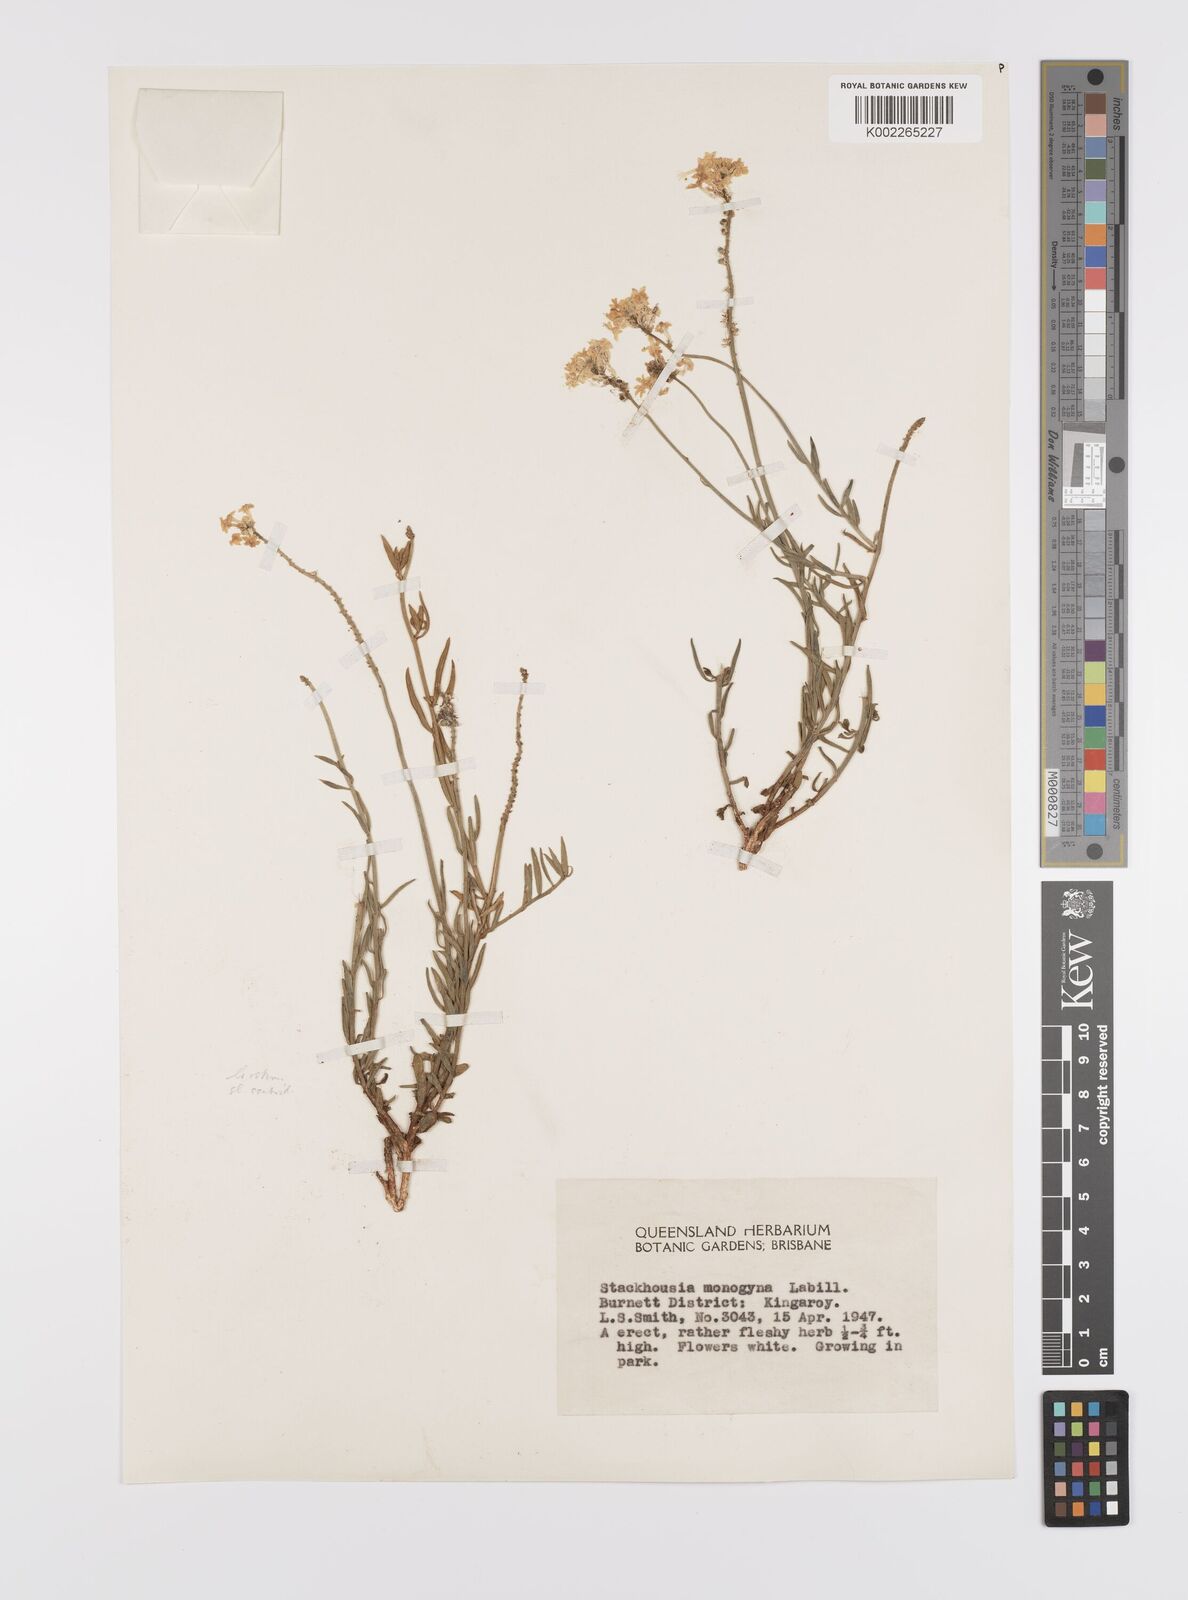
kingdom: Plantae
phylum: Tracheophyta
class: Magnoliopsida
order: Celastrales
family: Celastraceae
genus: Stackhousia
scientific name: Stackhousia monogyna
